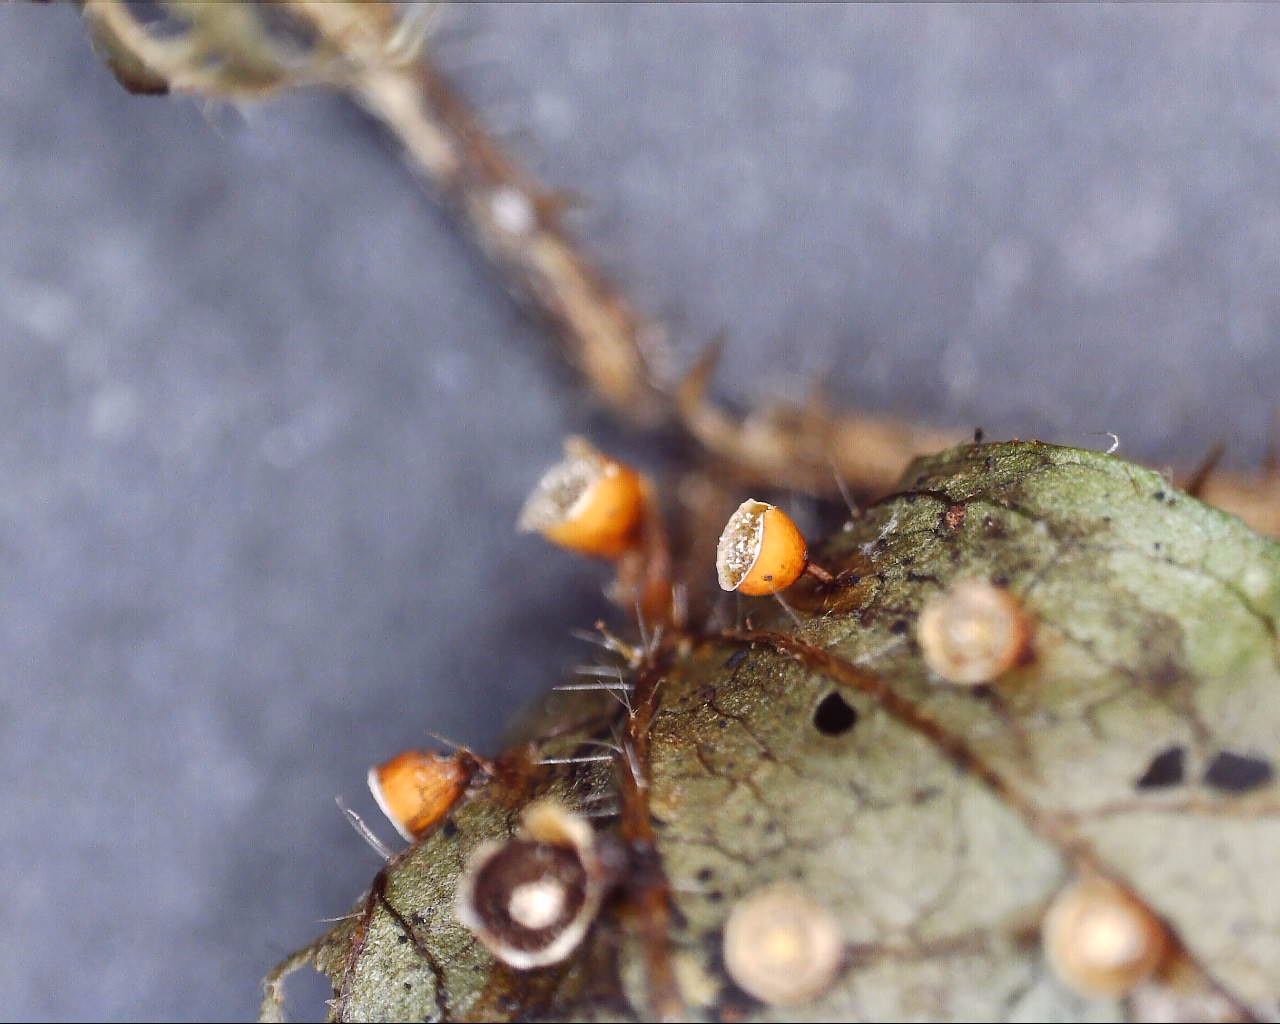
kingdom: Protozoa
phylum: Mycetozoa
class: Myxomycetes
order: Physarales
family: Physaraceae
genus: Craterium
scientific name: Craterium minutum
